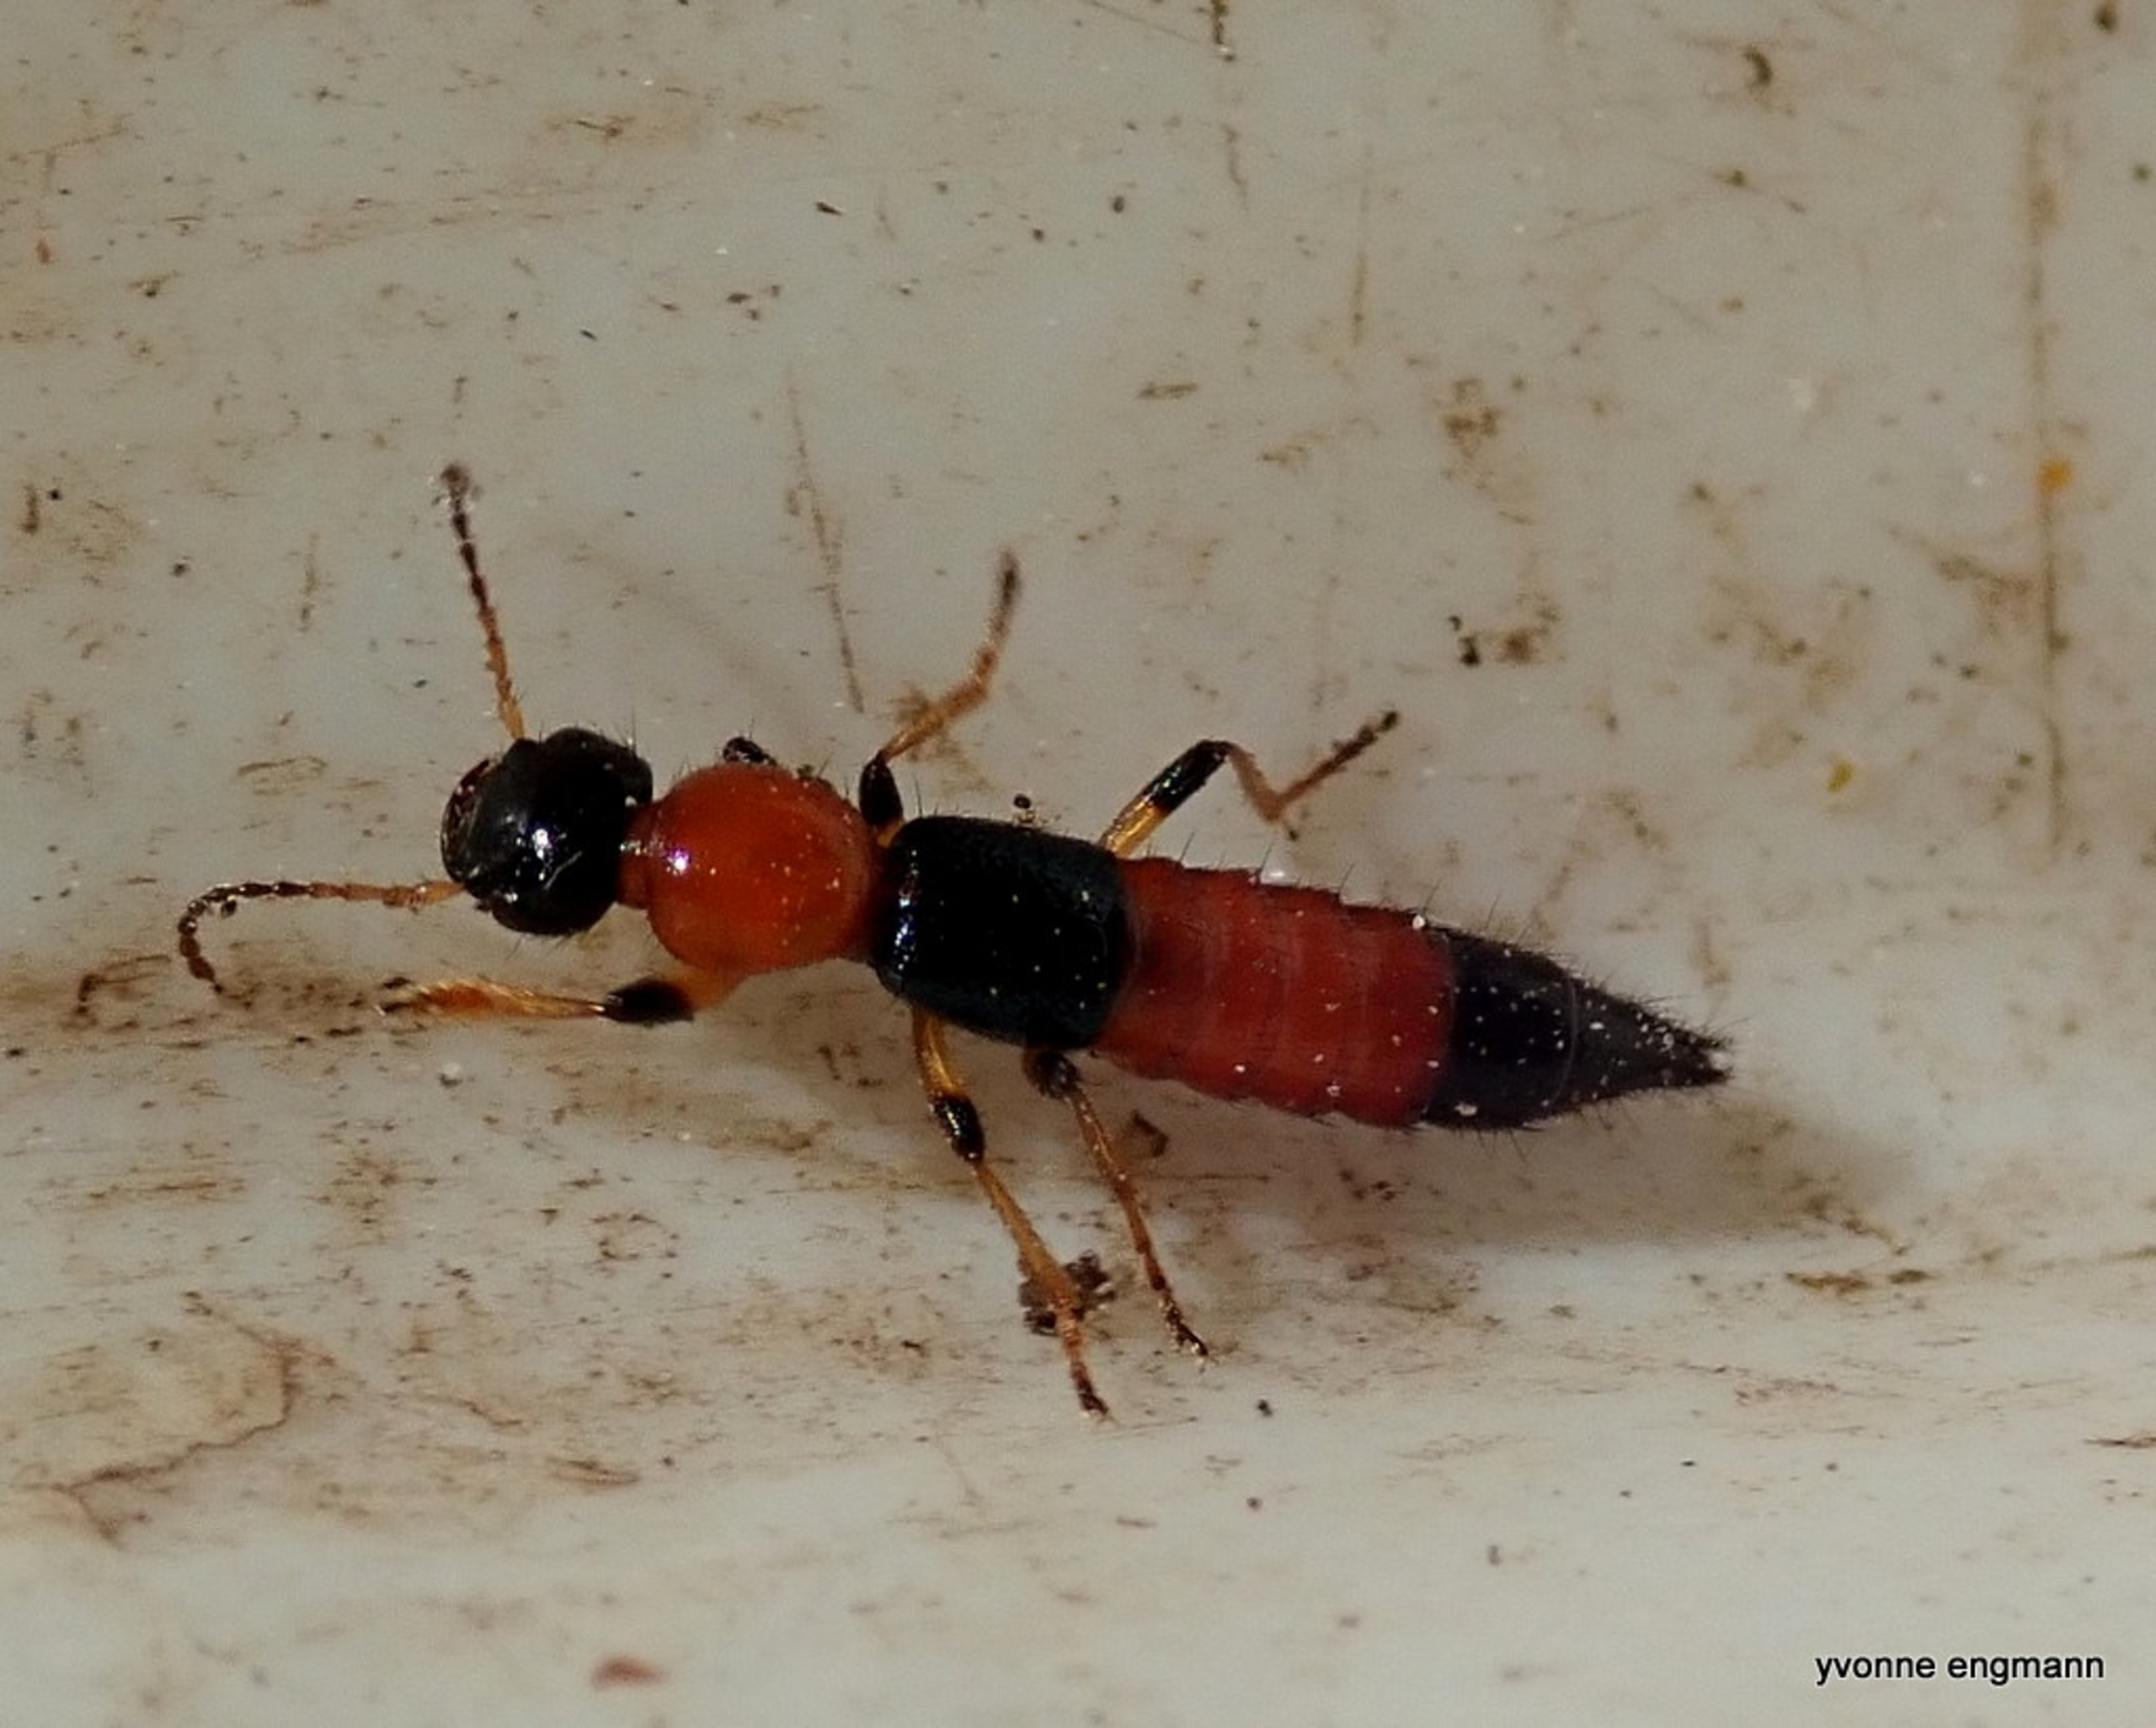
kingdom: Animalia
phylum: Arthropoda
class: Insecta
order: Coleoptera
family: Staphylinidae
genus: Paederus
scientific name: Paederus
